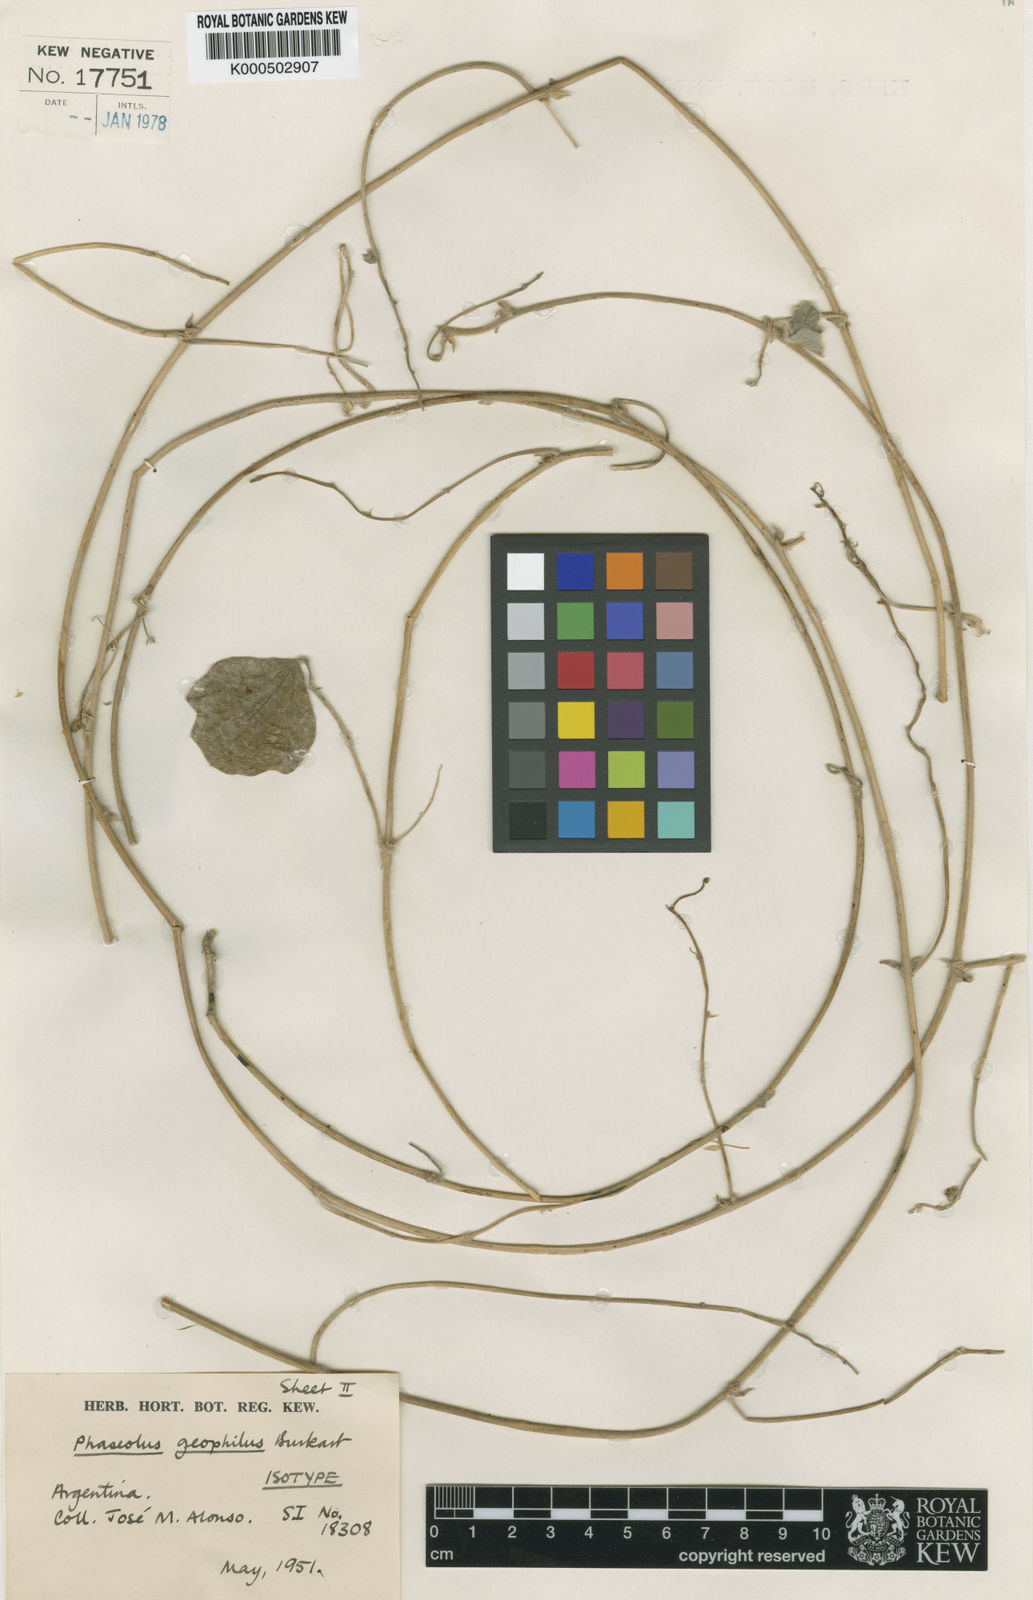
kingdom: Plantae
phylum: Tracheophyta
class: Magnoliopsida
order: Fabales
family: Fabaceae
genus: Macroptilium
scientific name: Macroptilium
